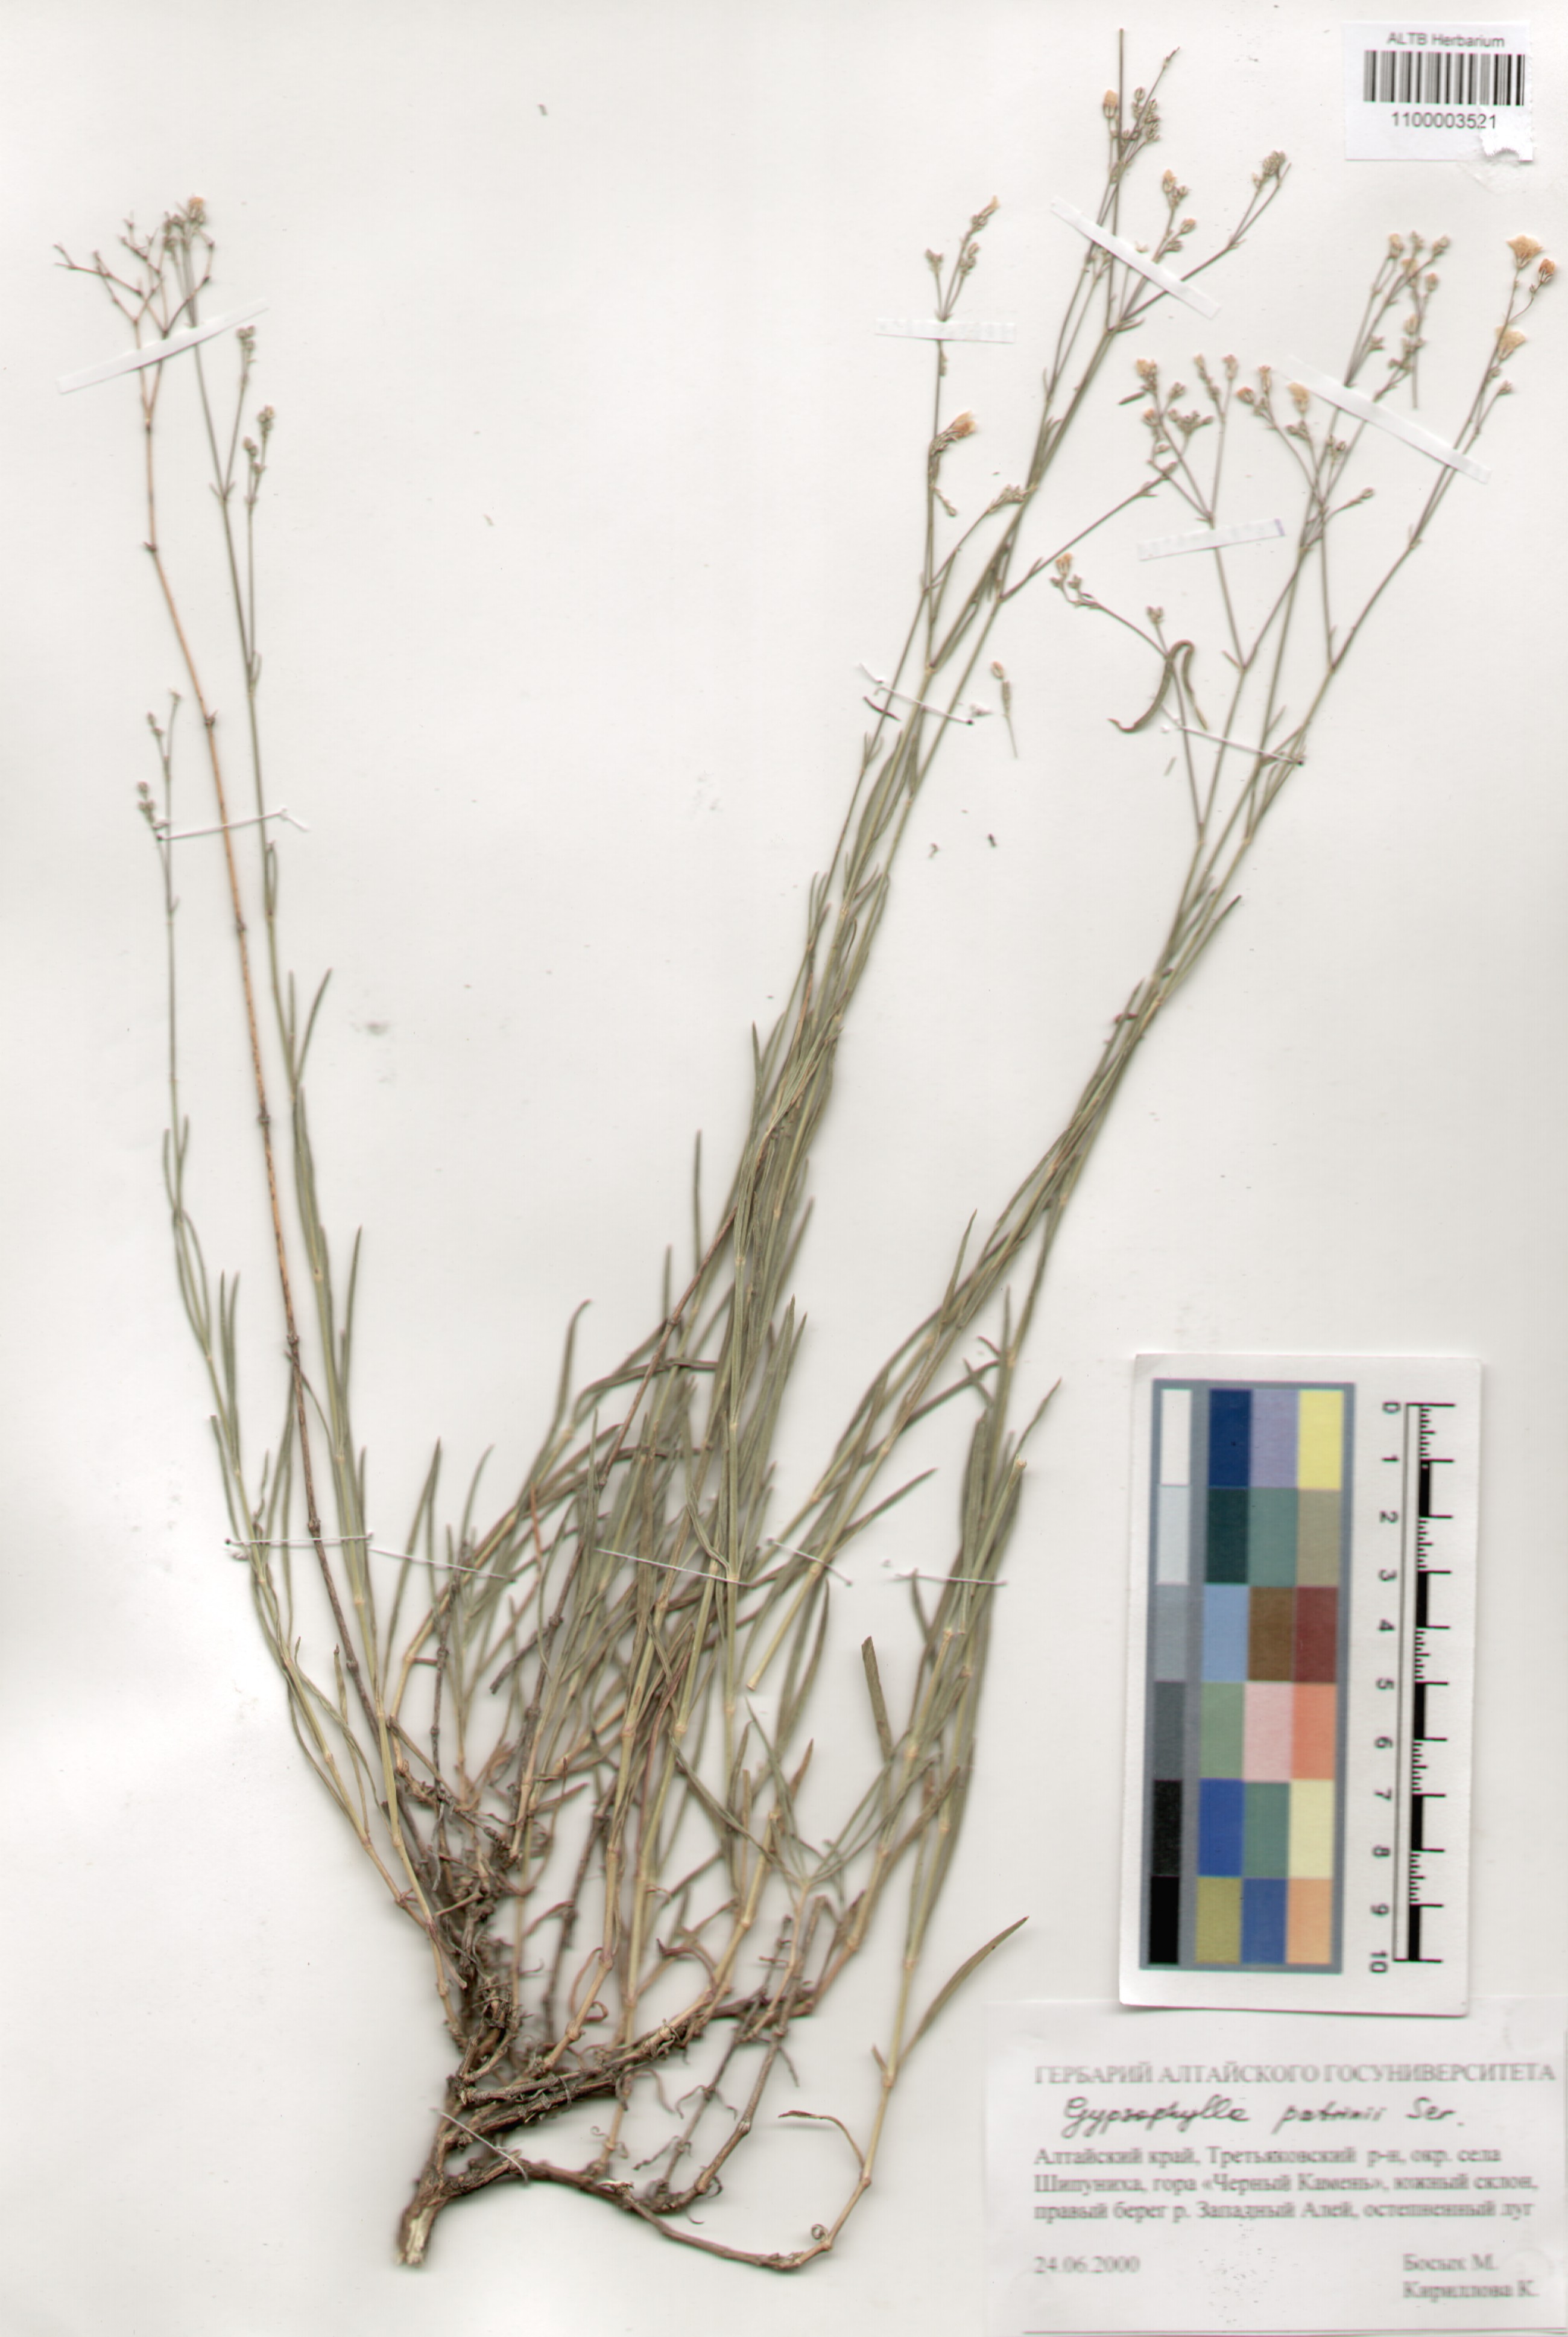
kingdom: Plantae
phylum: Tracheophyta
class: Magnoliopsida
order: Caryophyllales
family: Caryophyllaceae
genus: Gypsophila
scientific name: Gypsophila patrinii
